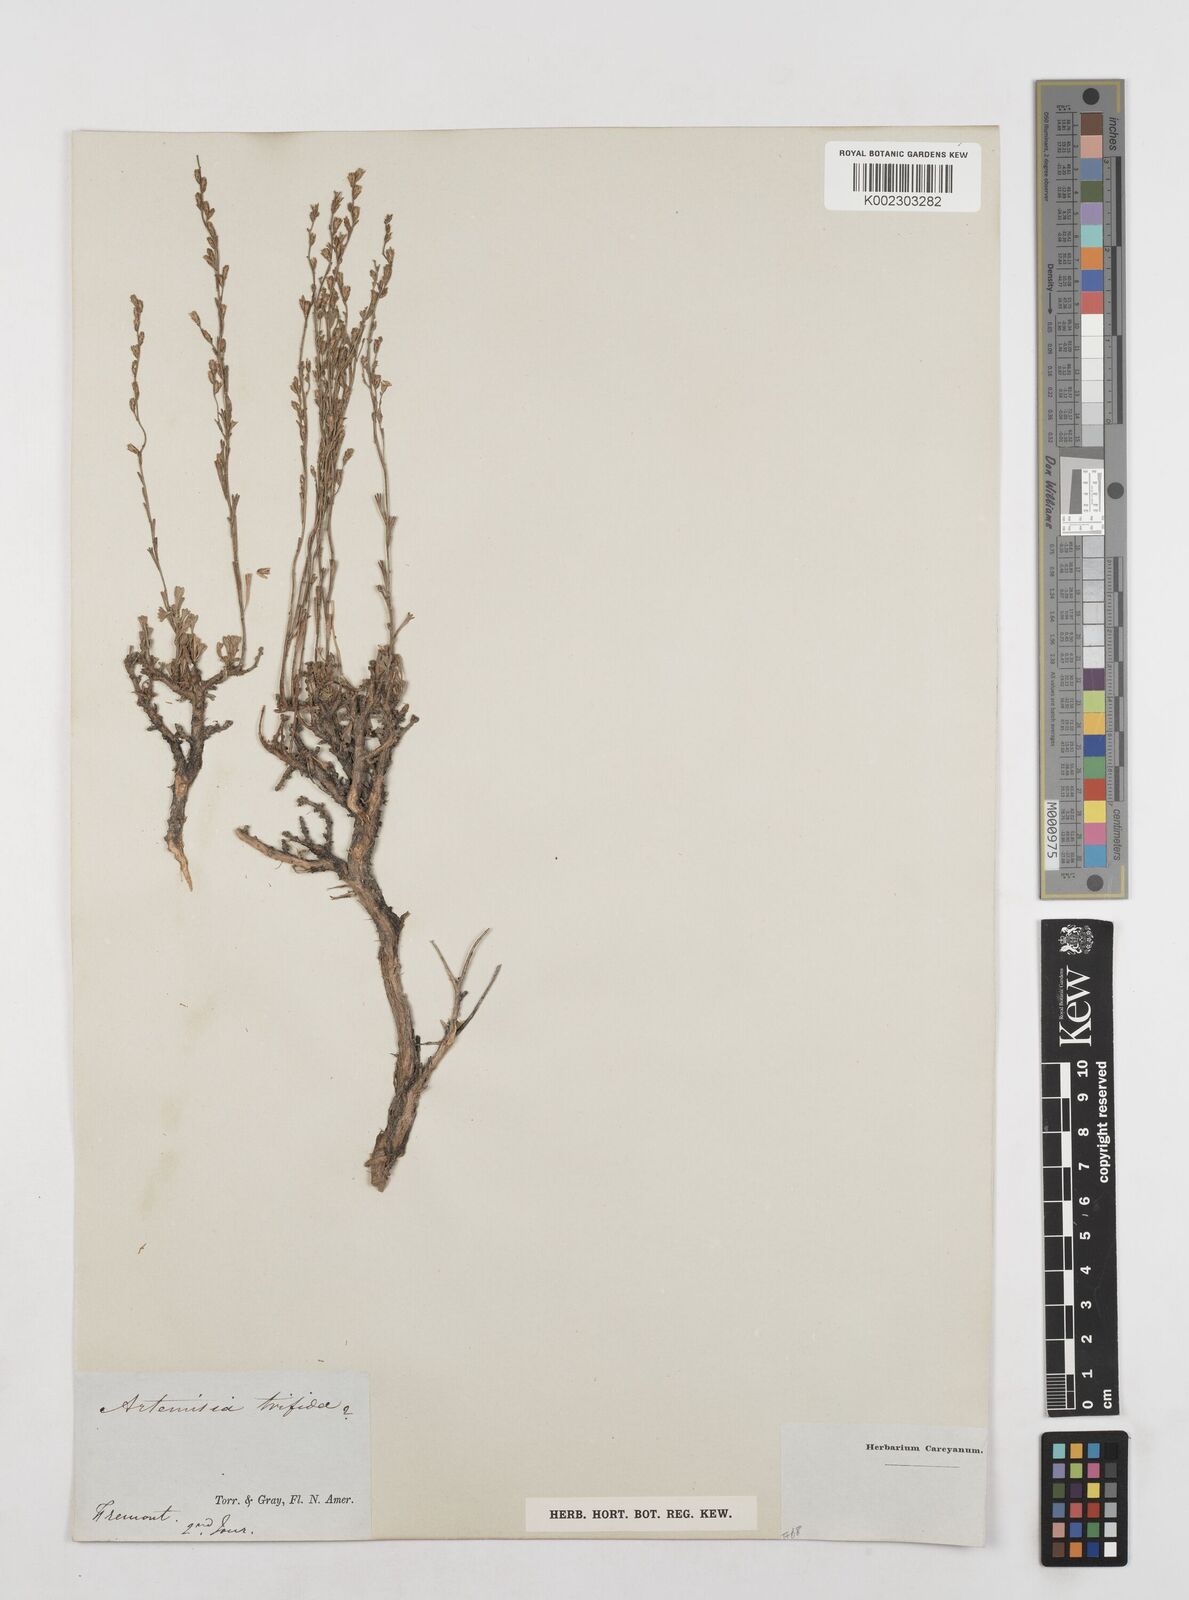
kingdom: Plantae
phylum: Tracheophyta
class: Magnoliopsida
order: Asterales
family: Asteraceae
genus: Artemisia
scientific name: Artemisia borealis
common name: Boreal sage
